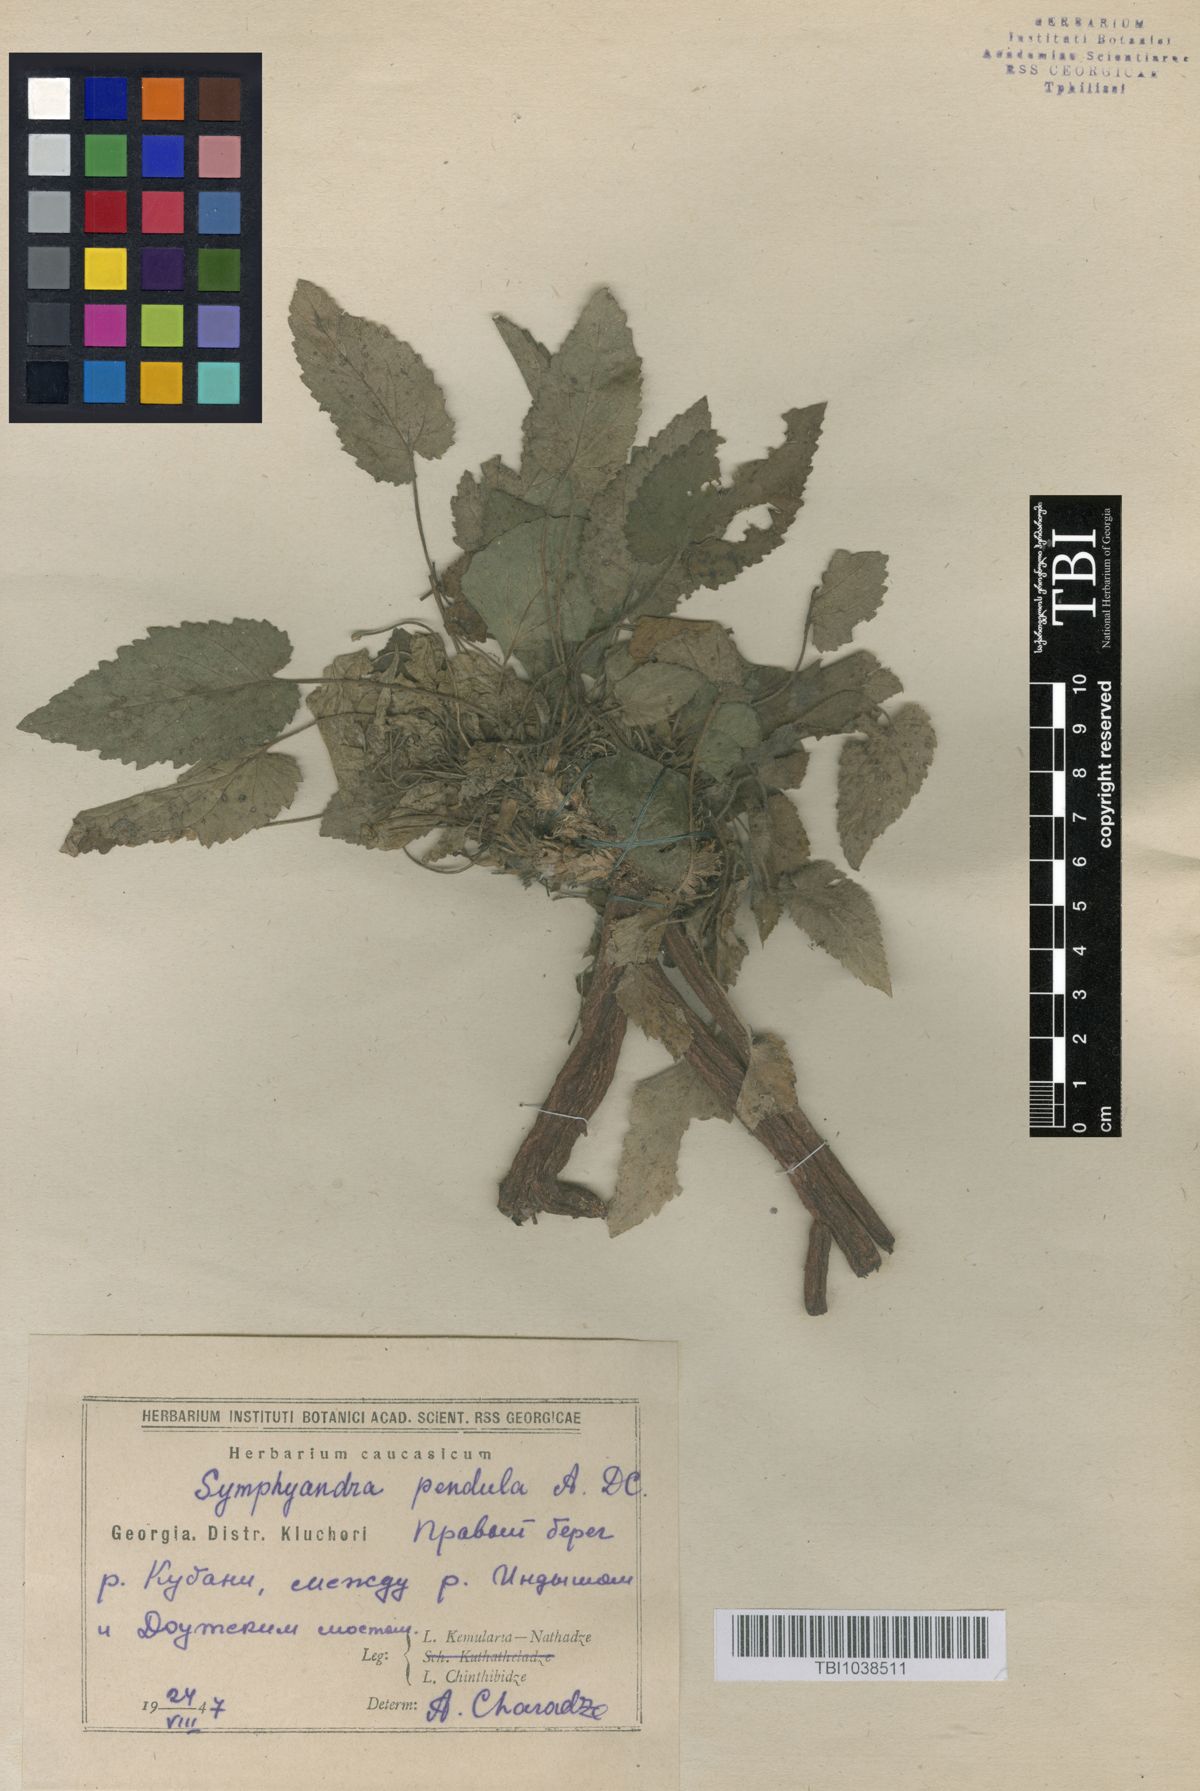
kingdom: Plantae
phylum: Tracheophyta
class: Magnoliopsida
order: Asterales
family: Campanulaceae
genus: Campanula
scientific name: Campanula pendula
